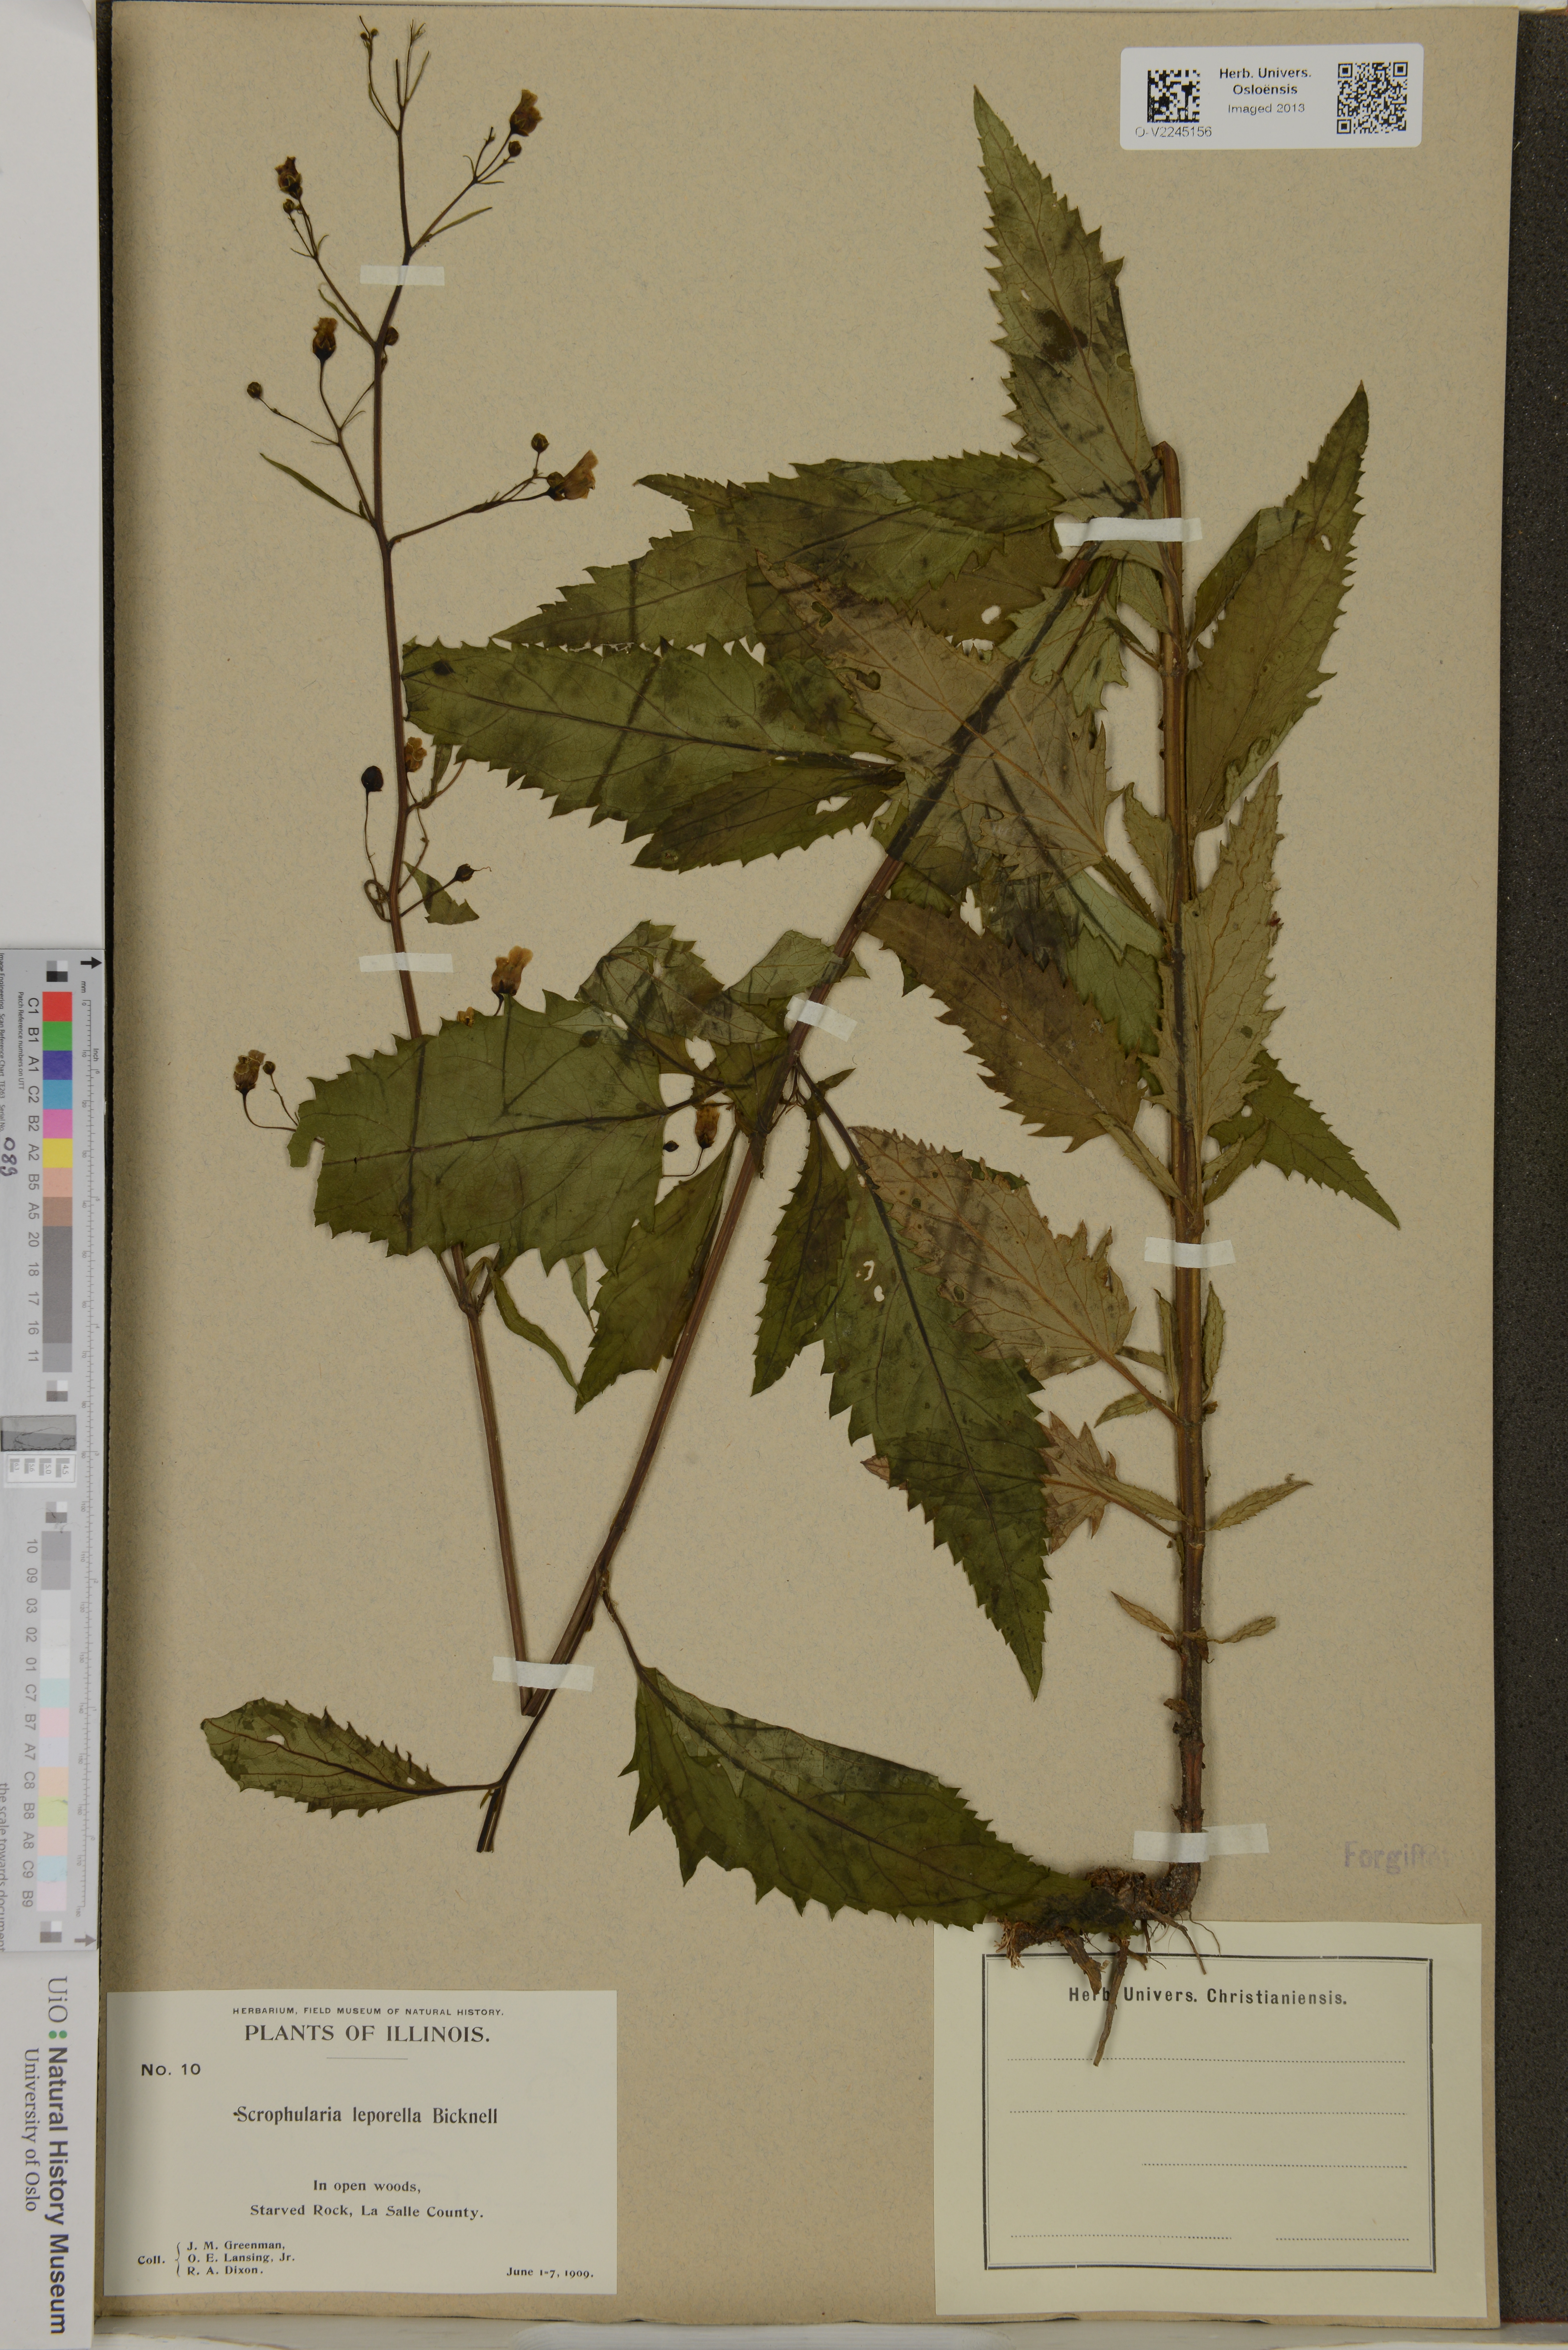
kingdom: Plantae
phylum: Tracheophyta
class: Magnoliopsida
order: Lamiales
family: Scrophulariaceae
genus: Scrophularia
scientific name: Scrophularia lanceolata
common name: American figwort
